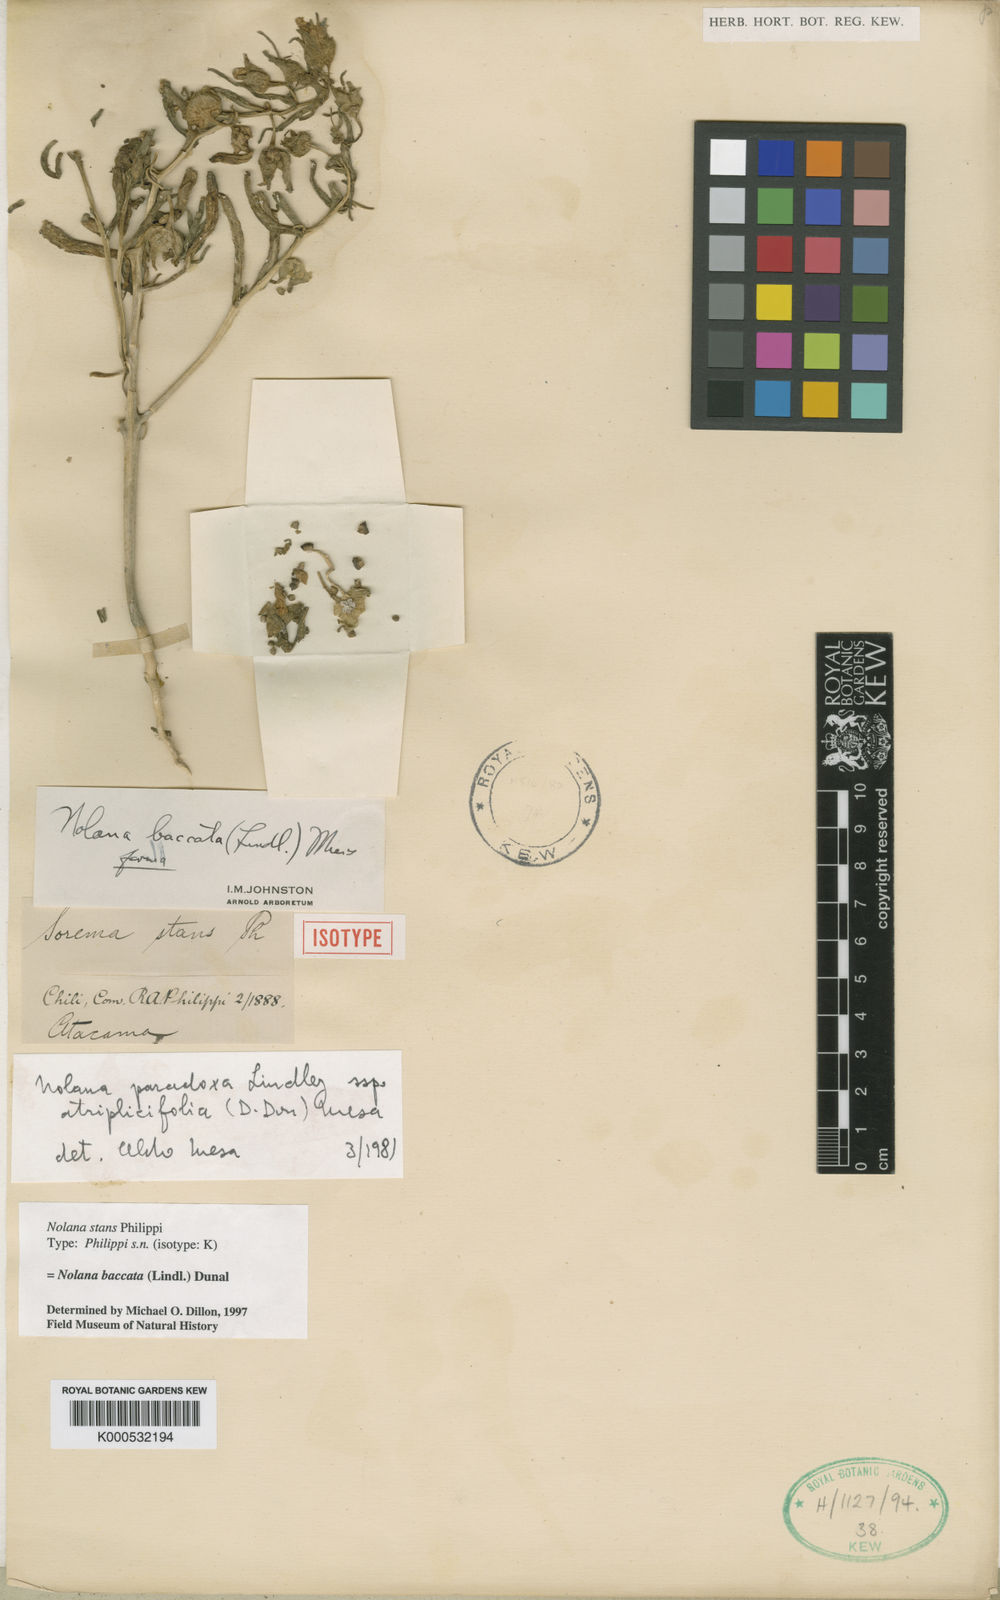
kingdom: Plantae
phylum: Tracheophyta
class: Magnoliopsida
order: Solanales
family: Solanaceae
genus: Nolana
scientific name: Nolana paradoxa
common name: Chilean-bellflower
